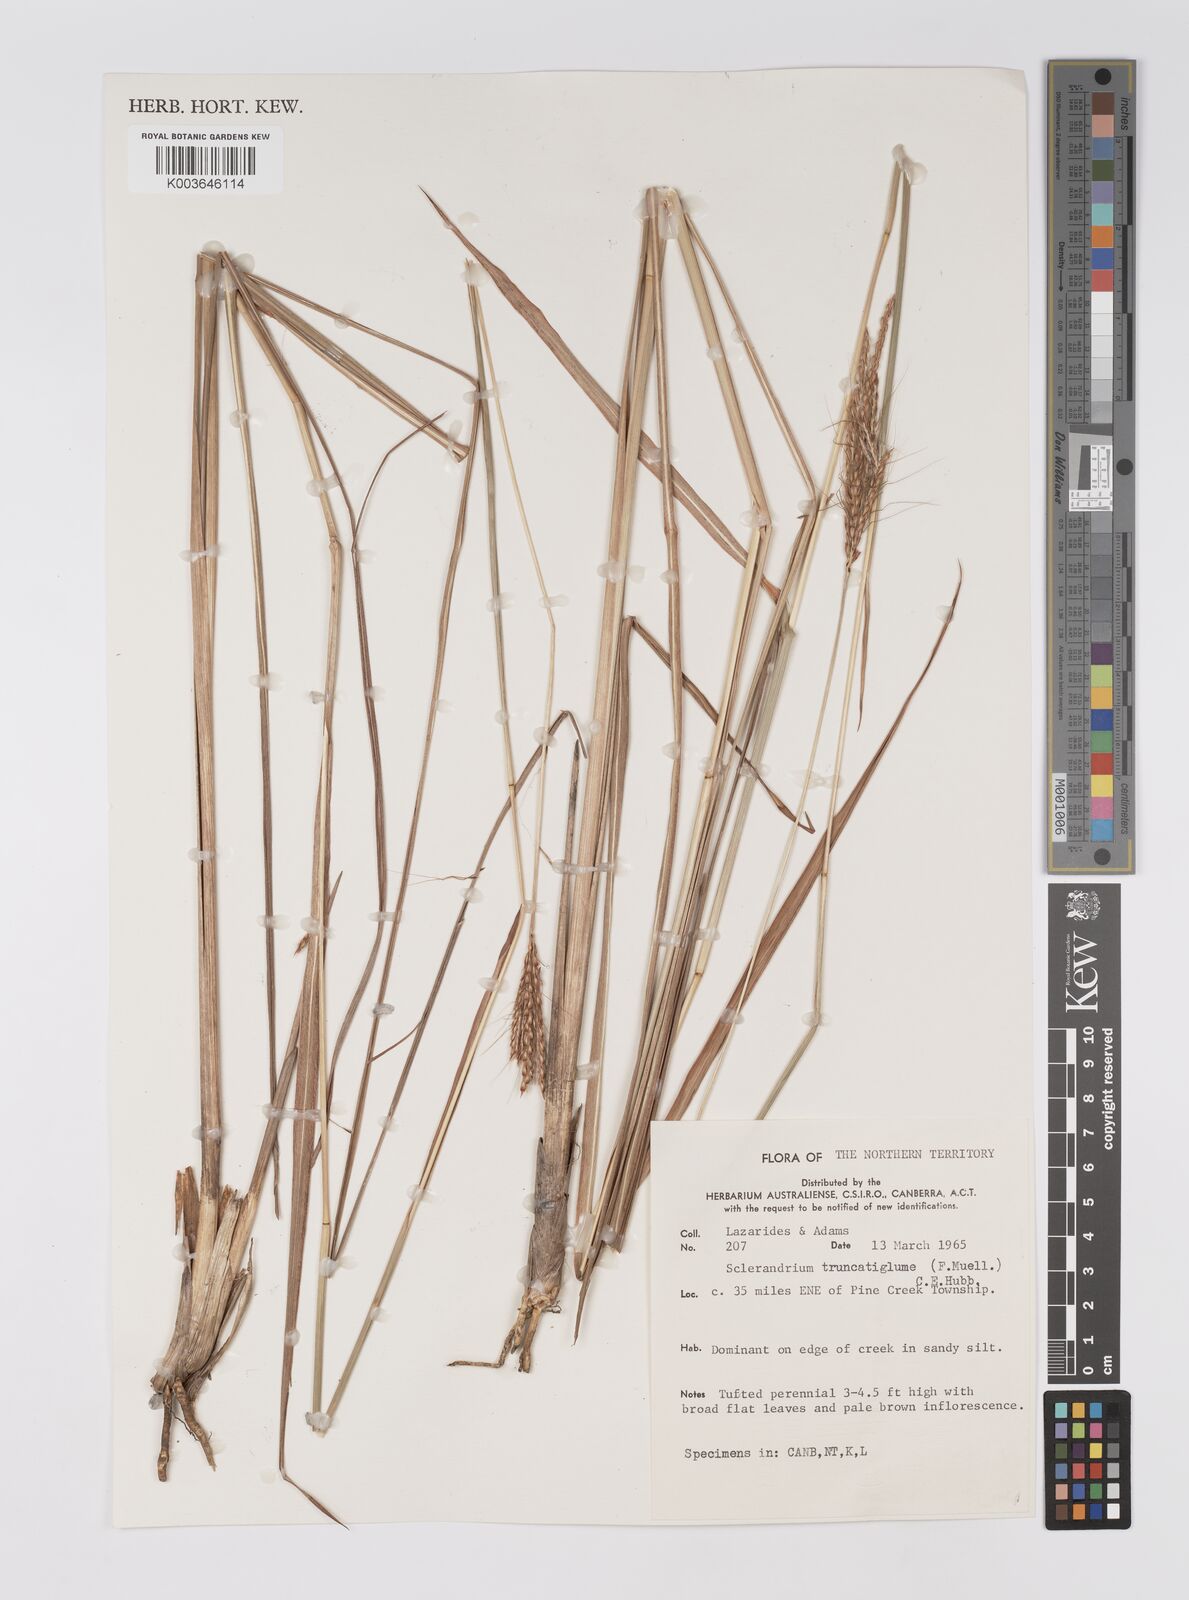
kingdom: Plantae
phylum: Tracheophyta
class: Liliopsida
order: Poales
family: Poaceae
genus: Germainia
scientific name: Germainia truncatiglumis
